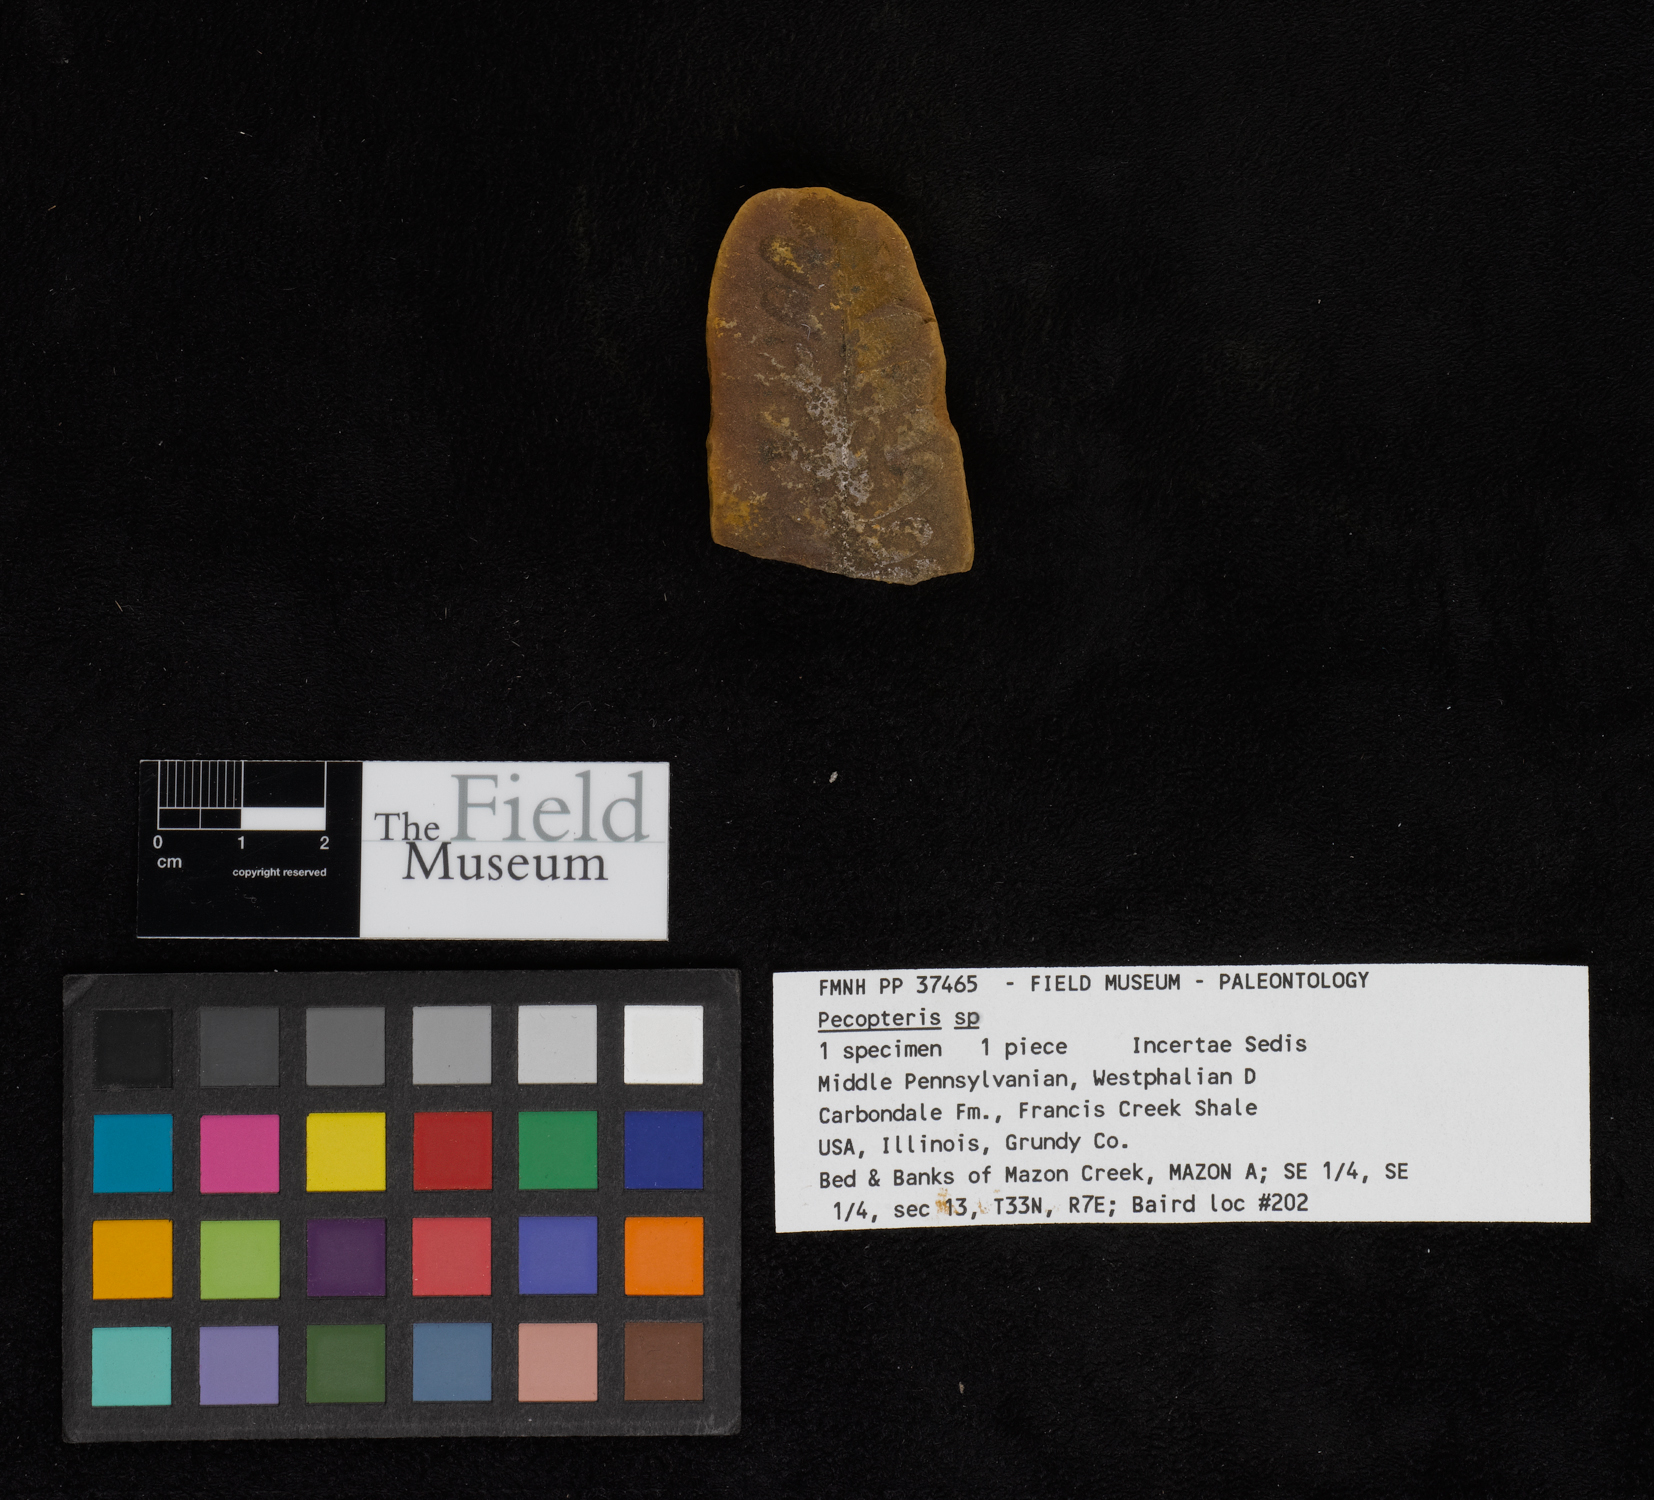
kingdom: Plantae
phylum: Tracheophyta
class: Polypodiopsida
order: Marattiales
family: Asterothecaceae
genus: Pecopteris
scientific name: Pecopteris
